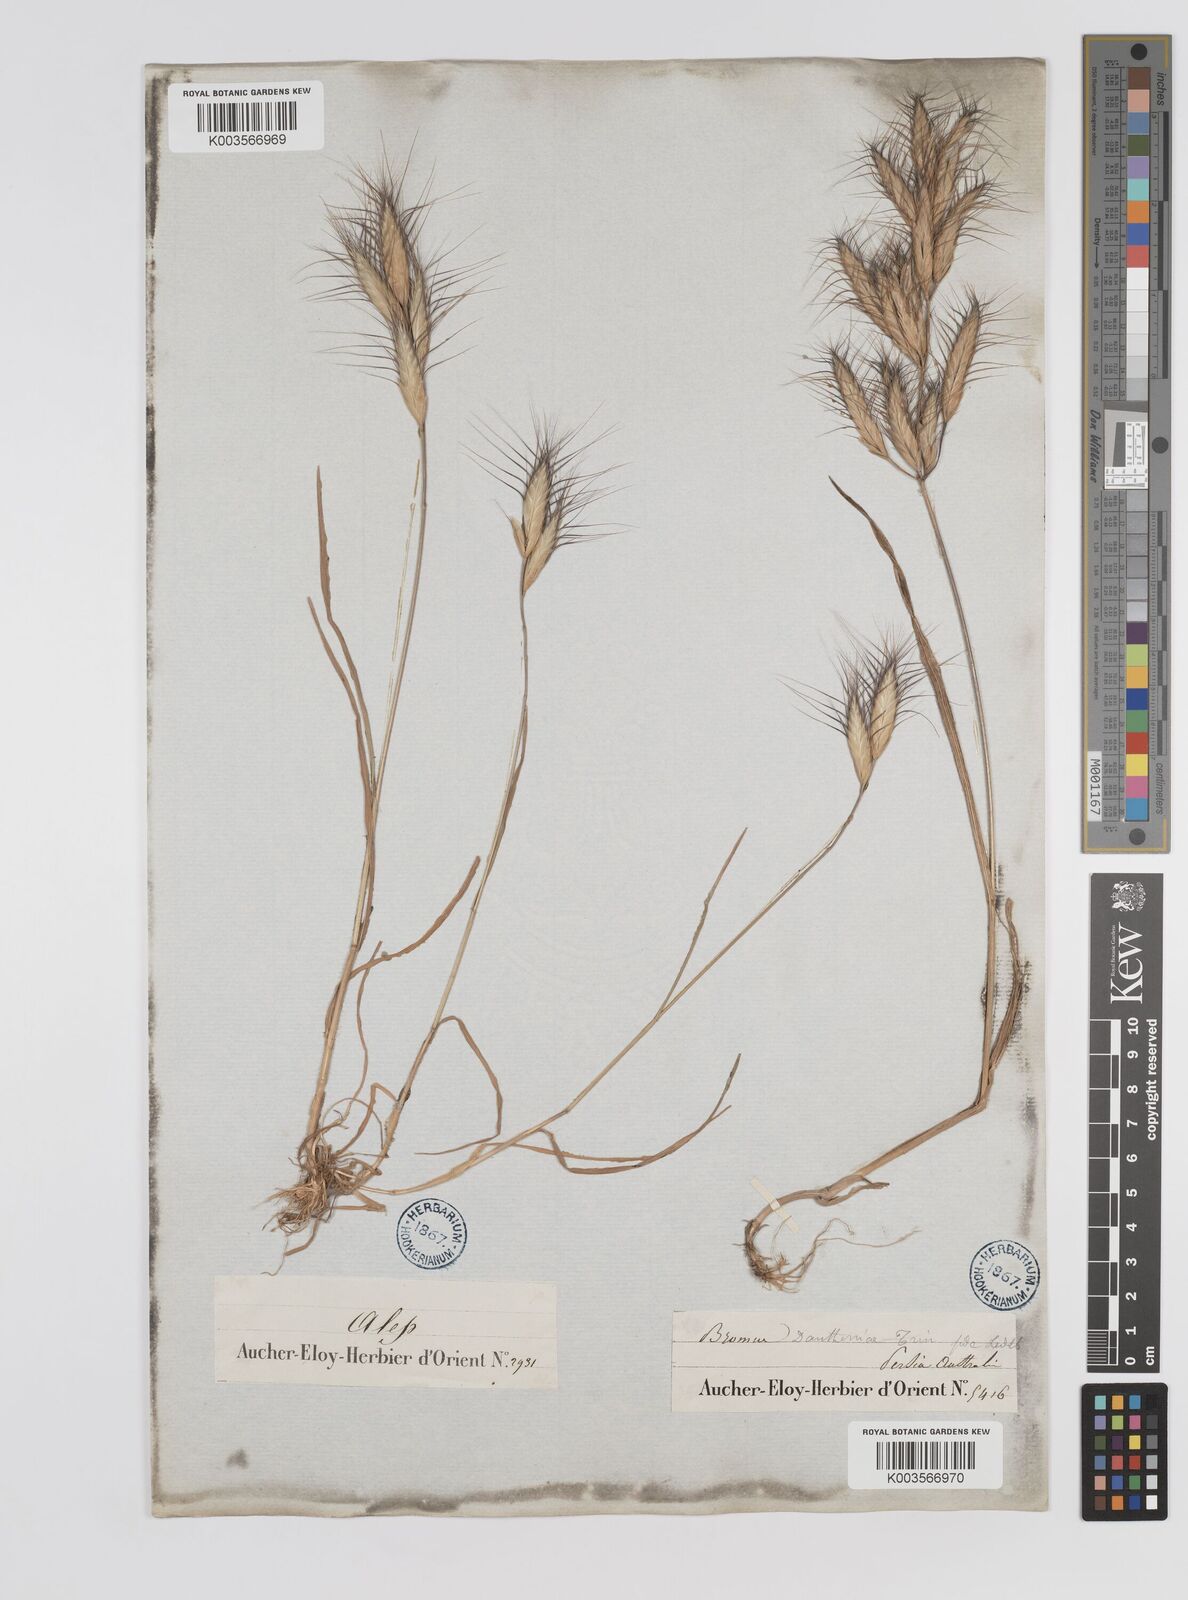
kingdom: Plantae
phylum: Tracheophyta
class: Liliopsida
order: Poales
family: Poaceae
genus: Bromus
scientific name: Bromus danthoniae
